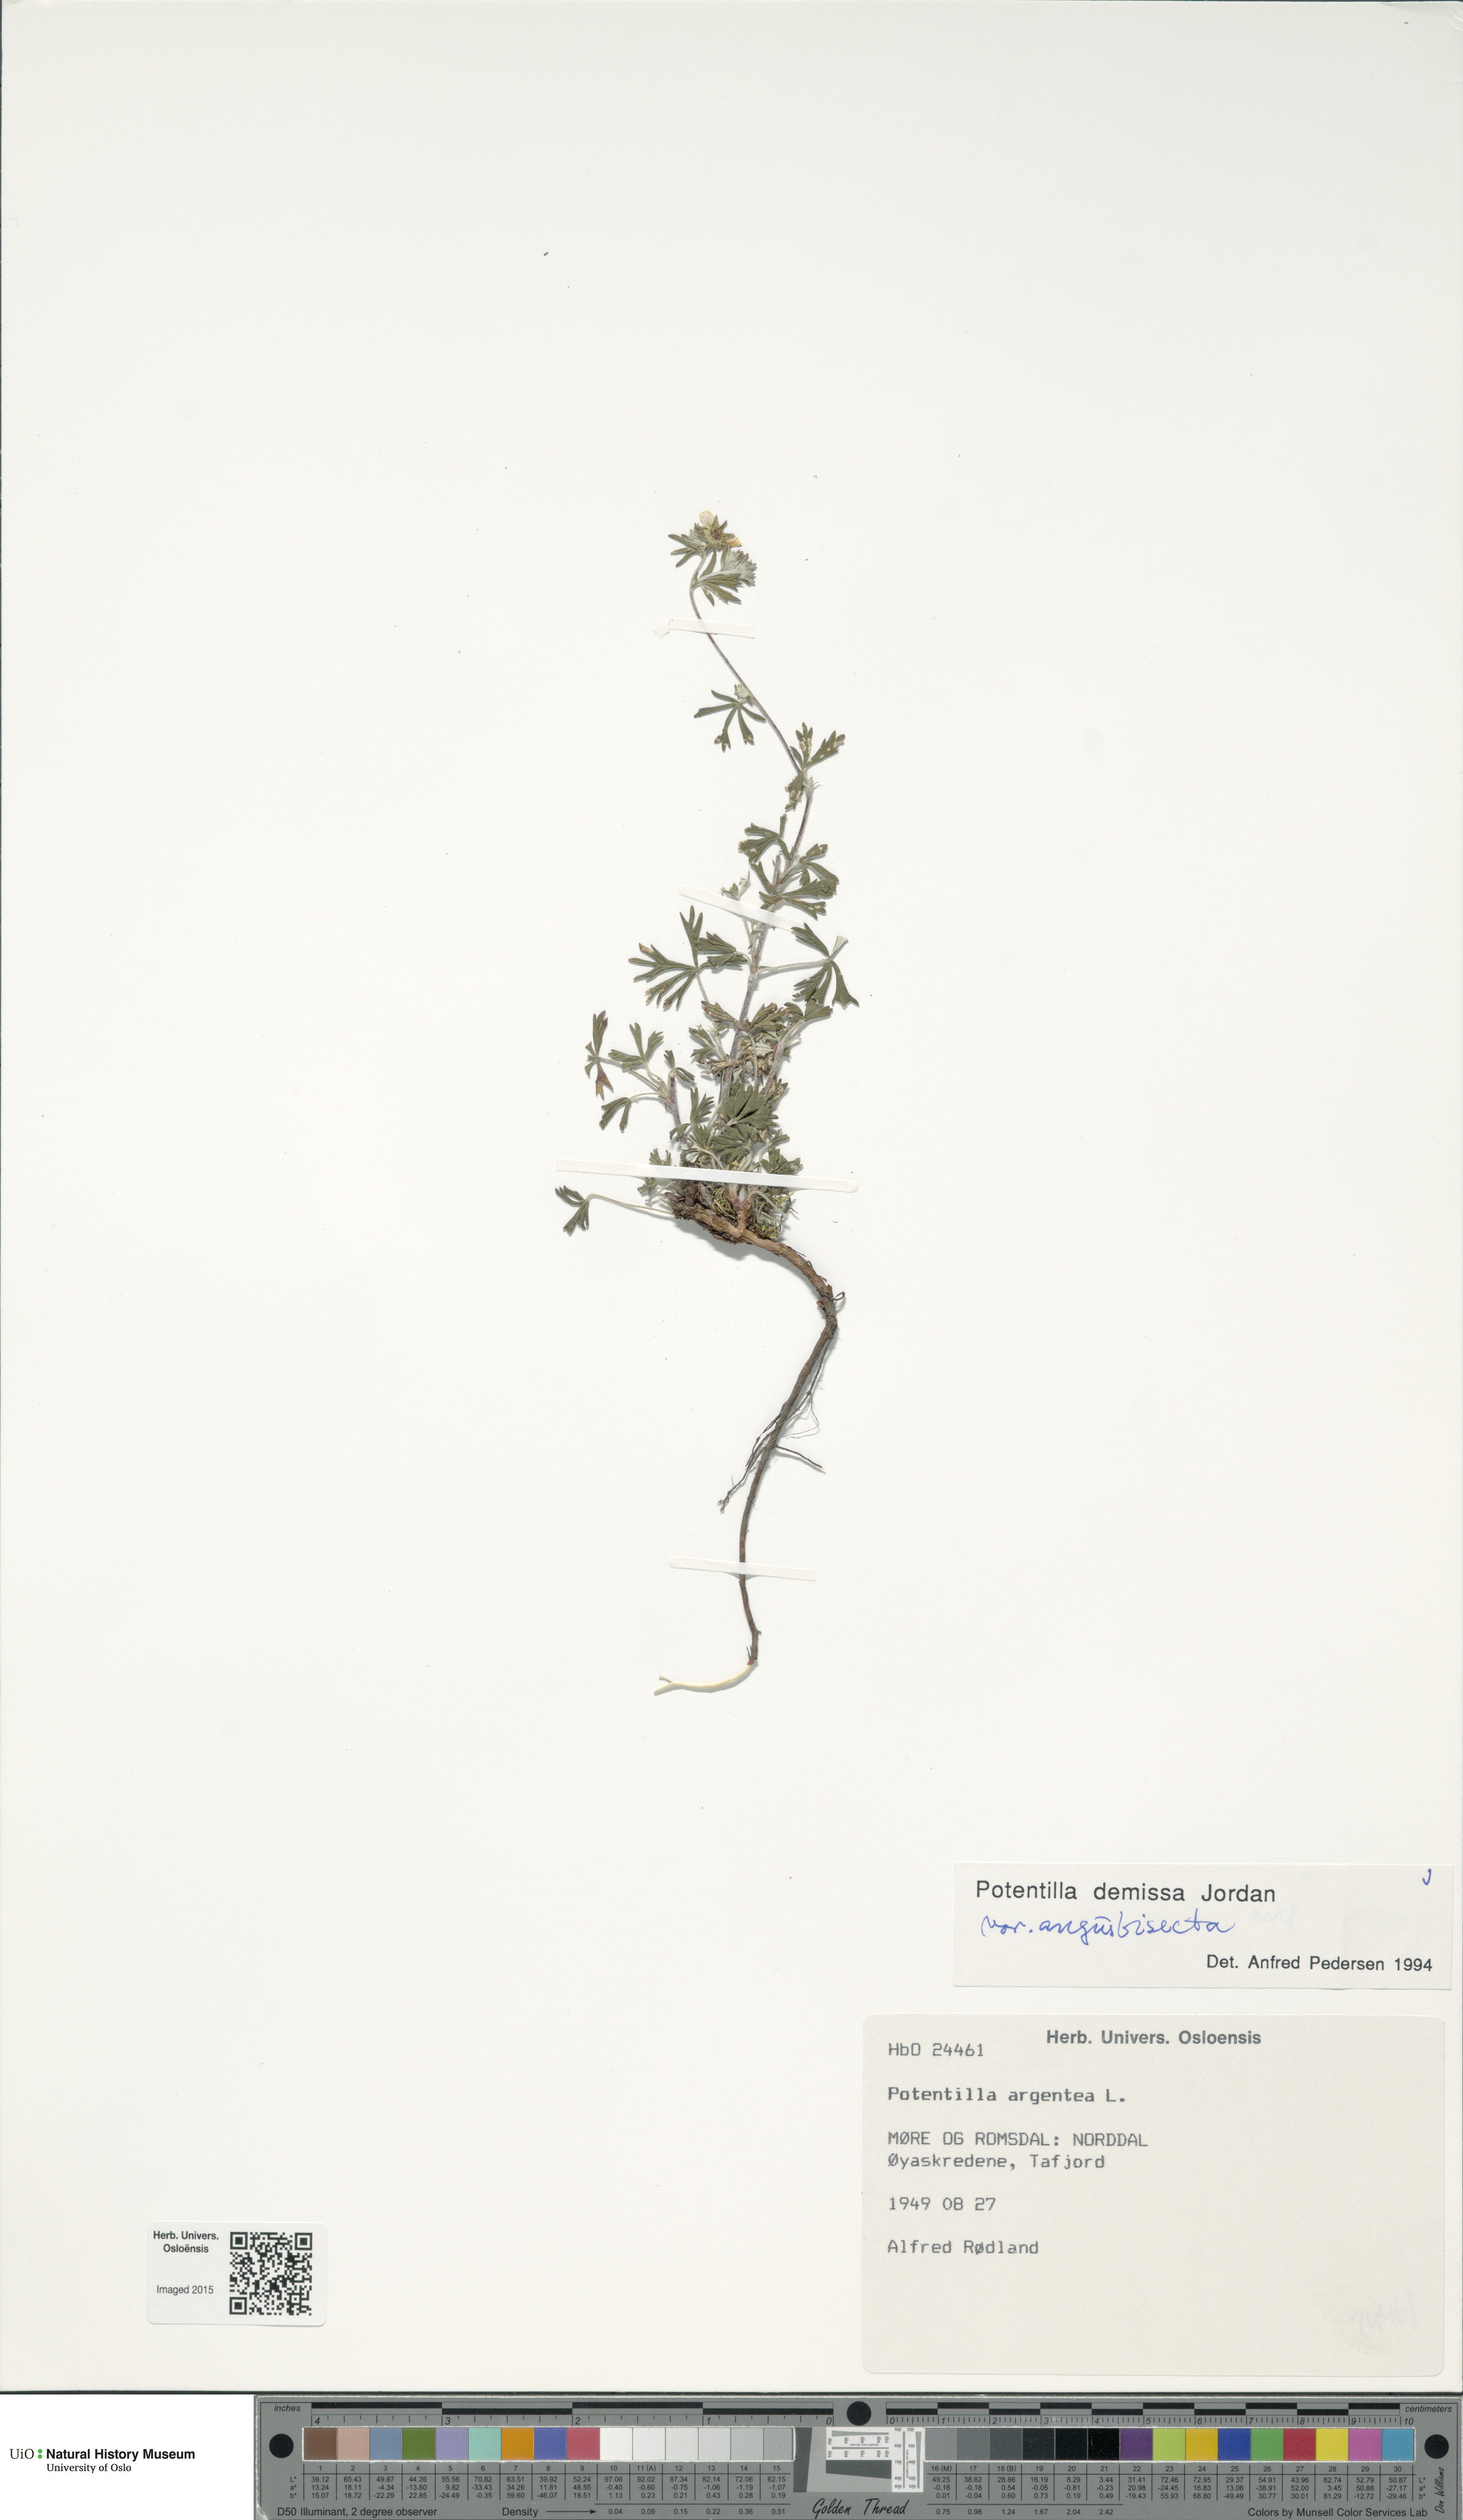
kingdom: Plantae
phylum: Tracheophyta
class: Magnoliopsida
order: Rosales
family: Rosaceae
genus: Potentilla
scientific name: Potentilla argentea
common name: Hoary cinquefoil
